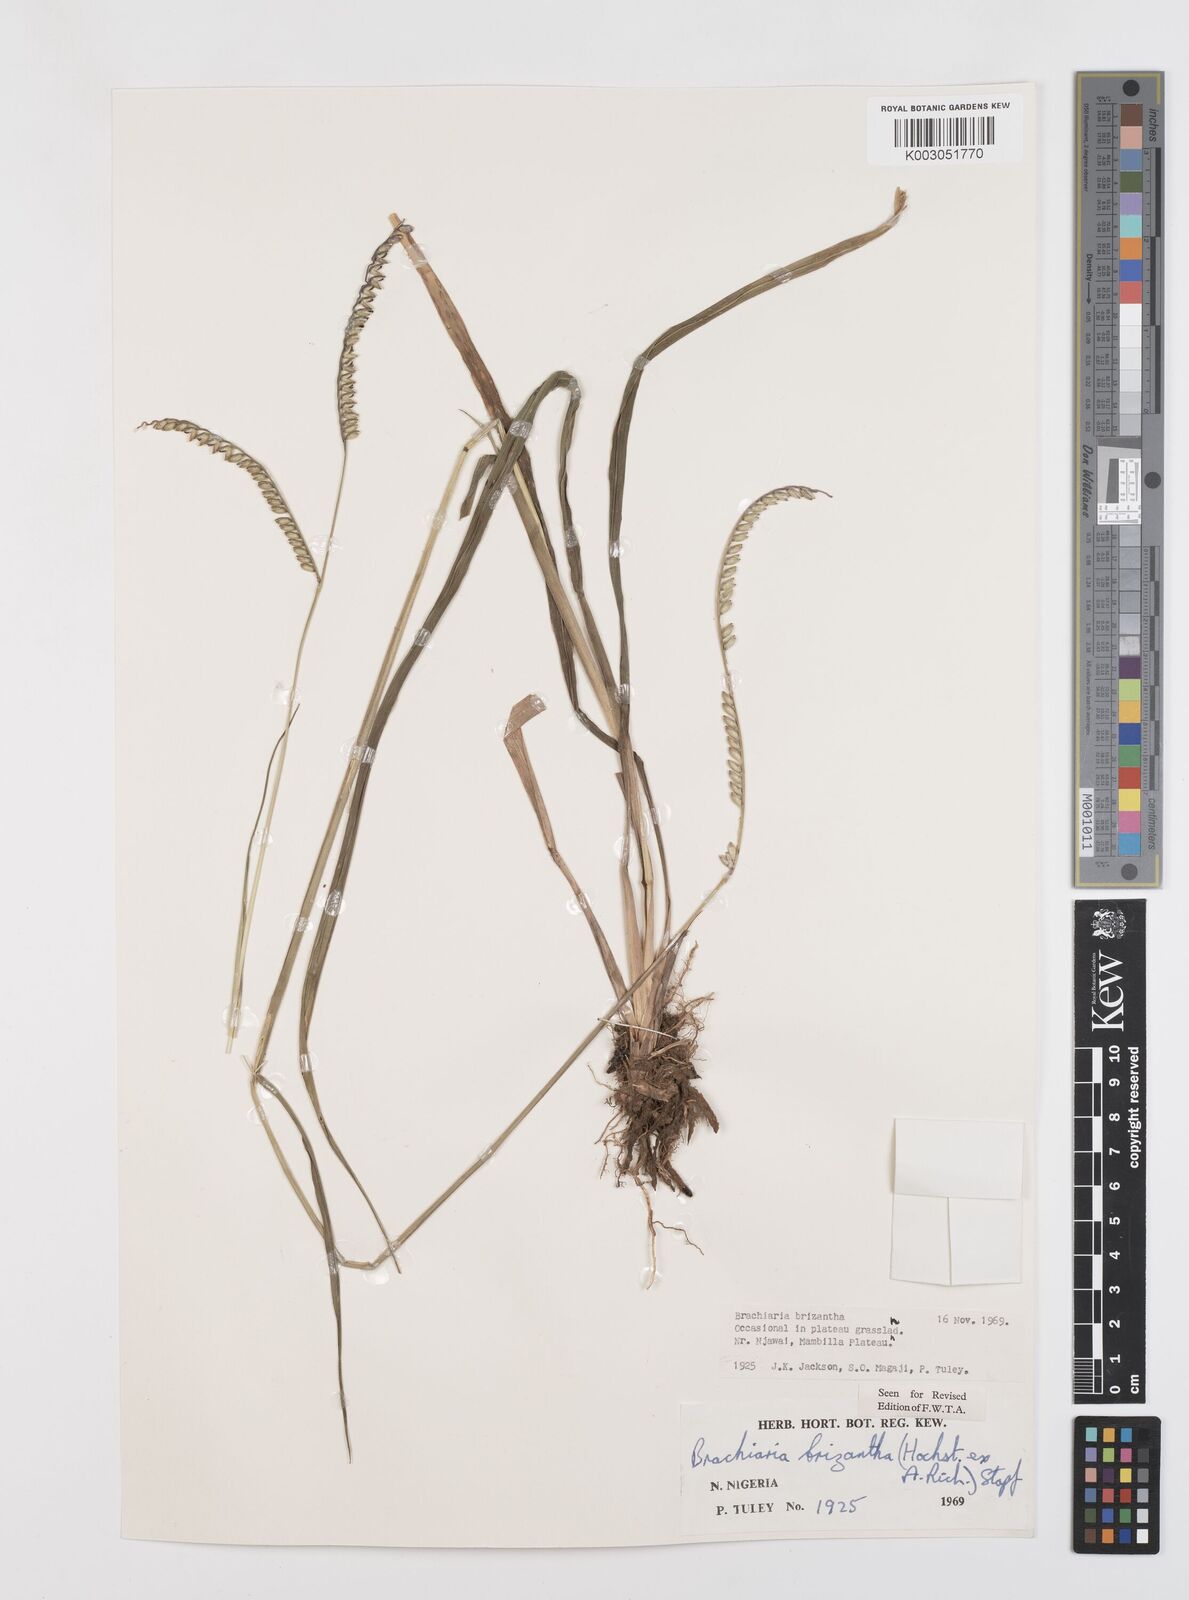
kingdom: Plantae
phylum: Tracheophyta
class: Liliopsida
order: Poales
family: Poaceae
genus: Urochloa
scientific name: Urochloa brizantha
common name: Palisade signalgrass
